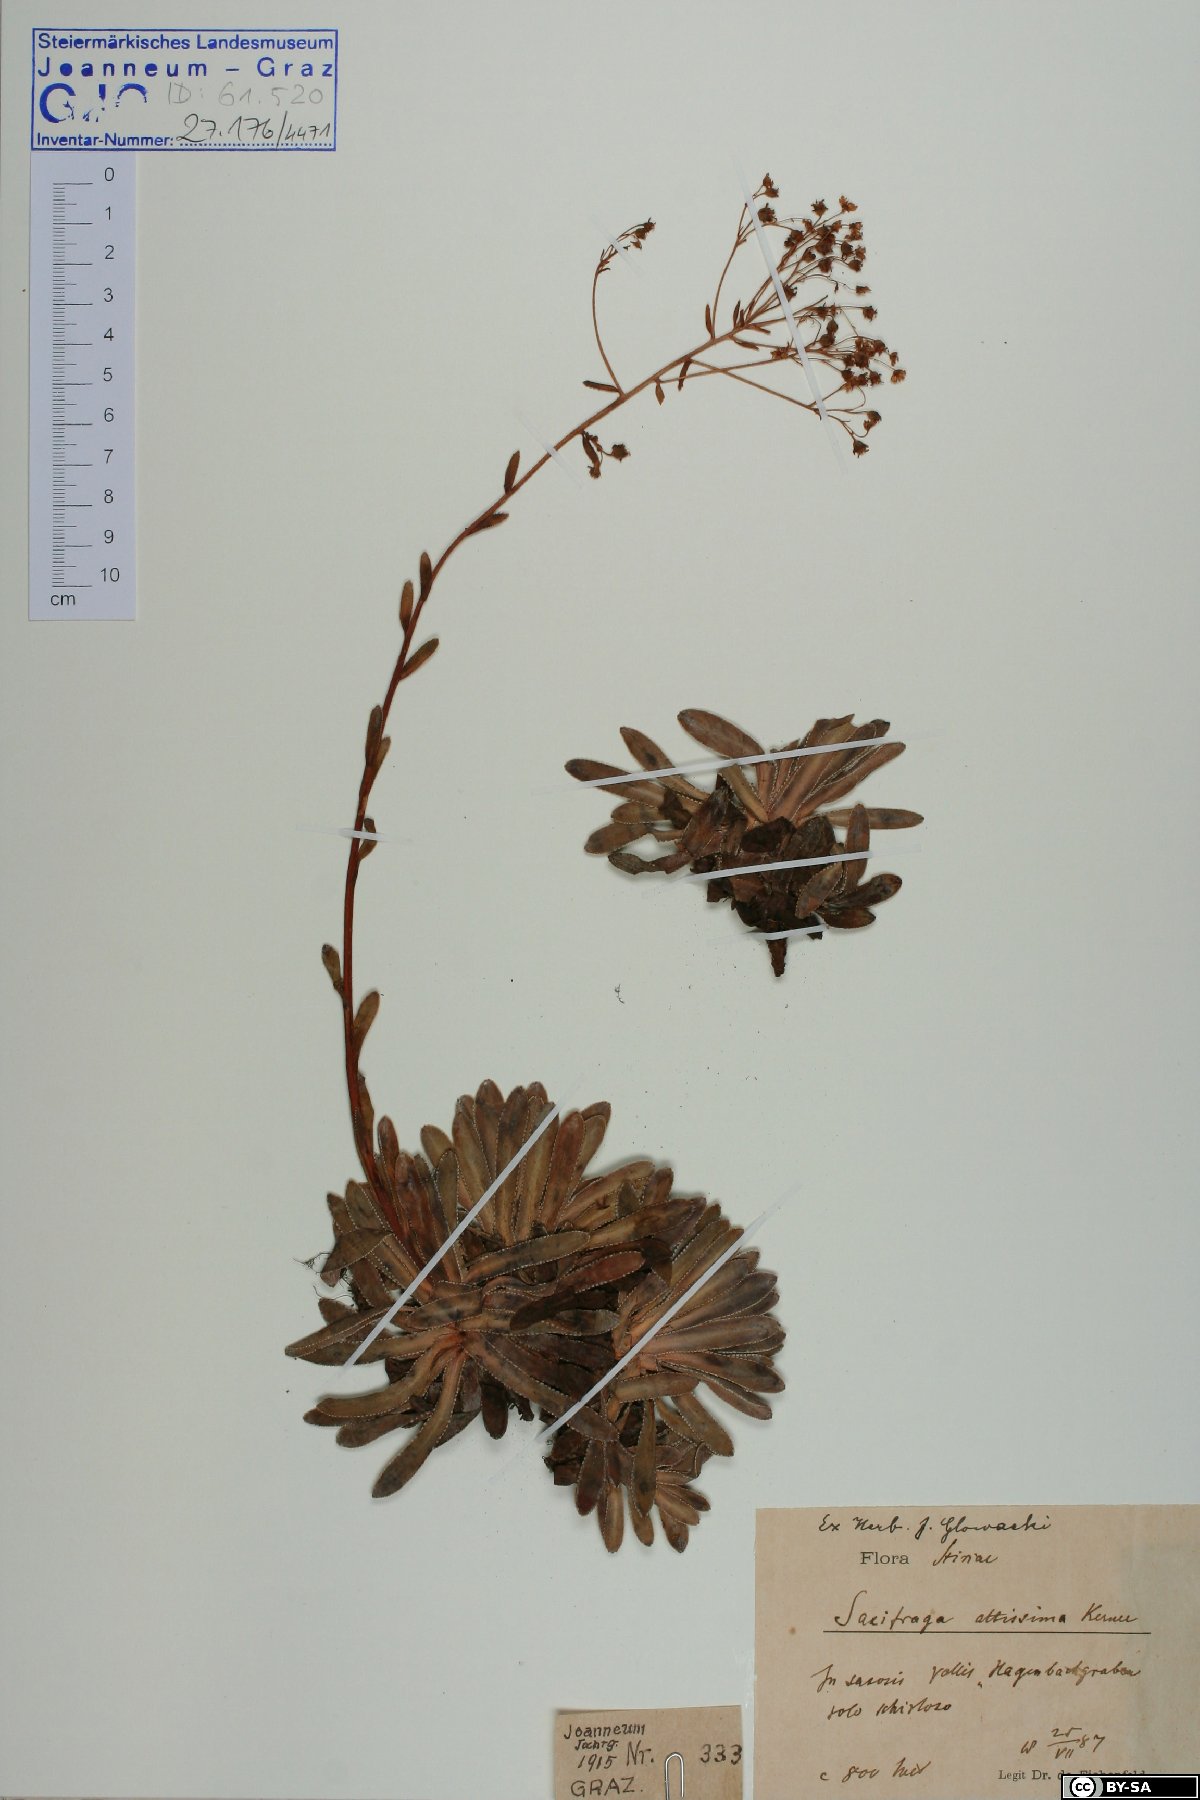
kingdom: Plantae
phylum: Tracheophyta
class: Magnoliopsida
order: Saxifragales
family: Saxifragaceae
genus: Saxifraga
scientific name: Saxifraga hostii
